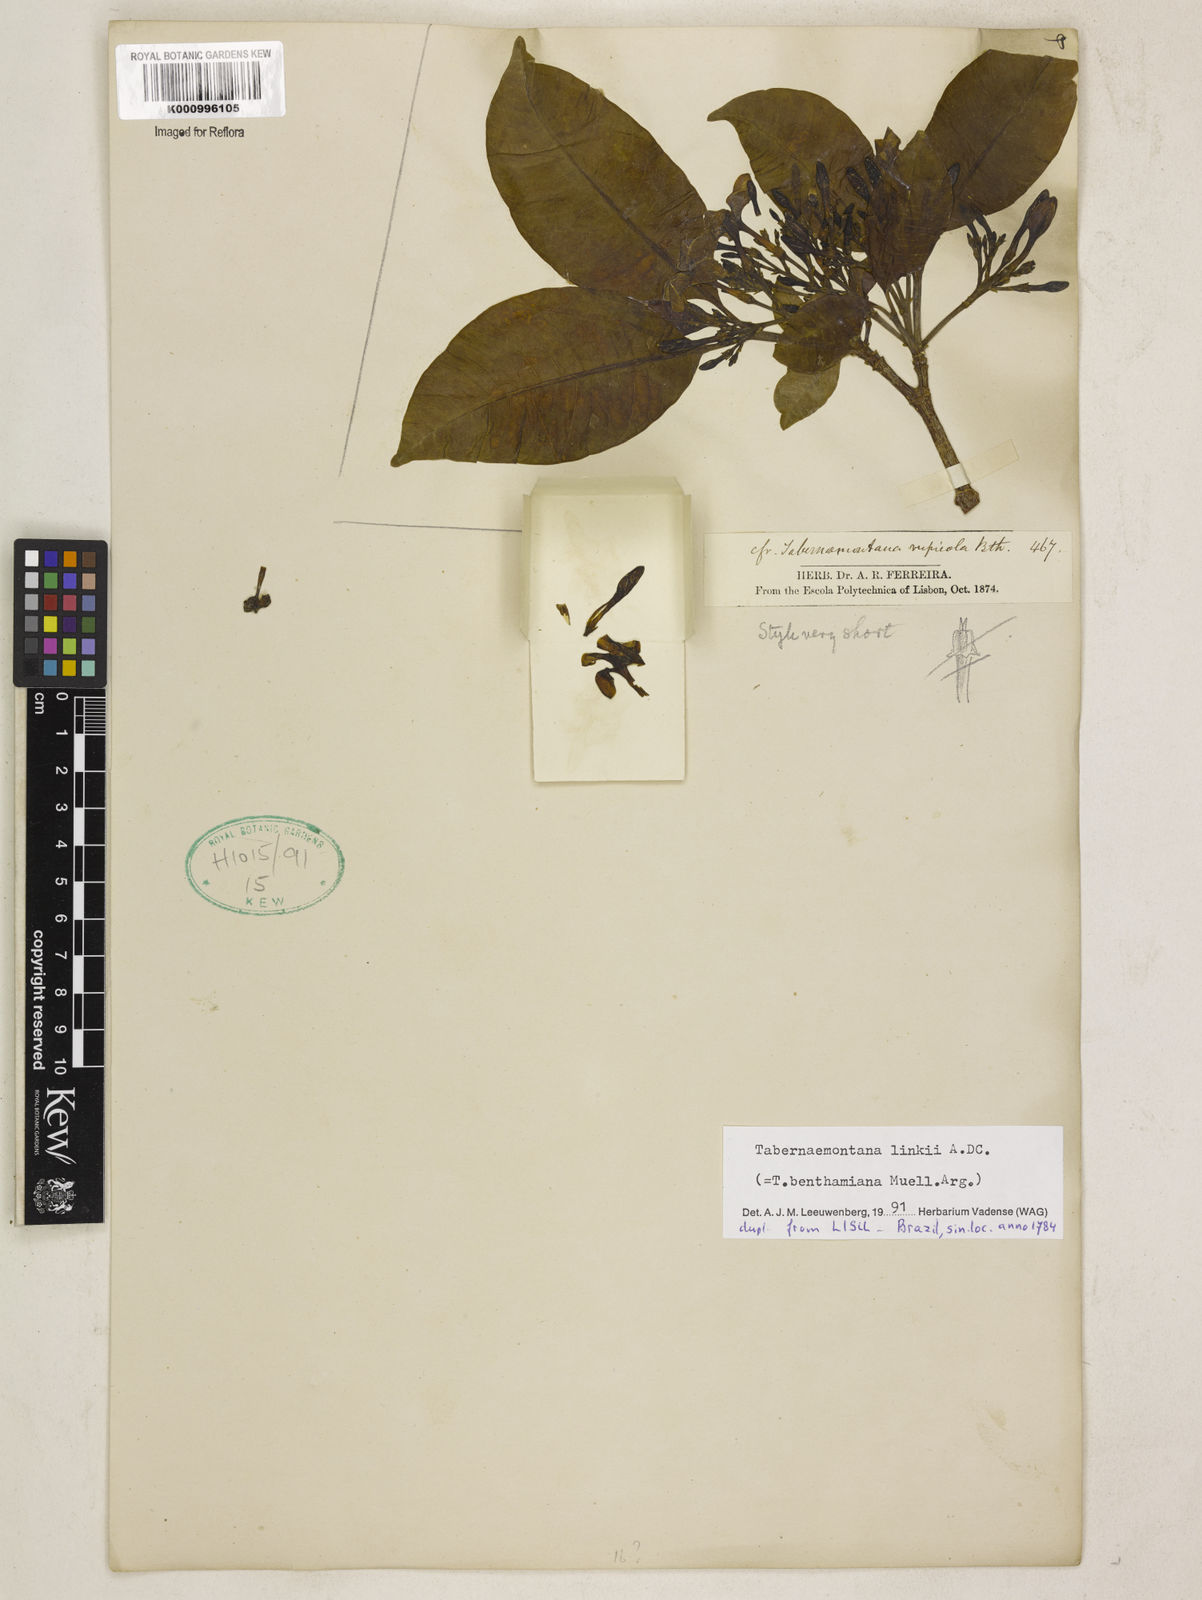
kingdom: Plantae
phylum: Tracheophyta
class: Magnoliopsida
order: Gentianales
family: Apocynaceae
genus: Tabernaemontana
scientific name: Tabernaemontana linkii
